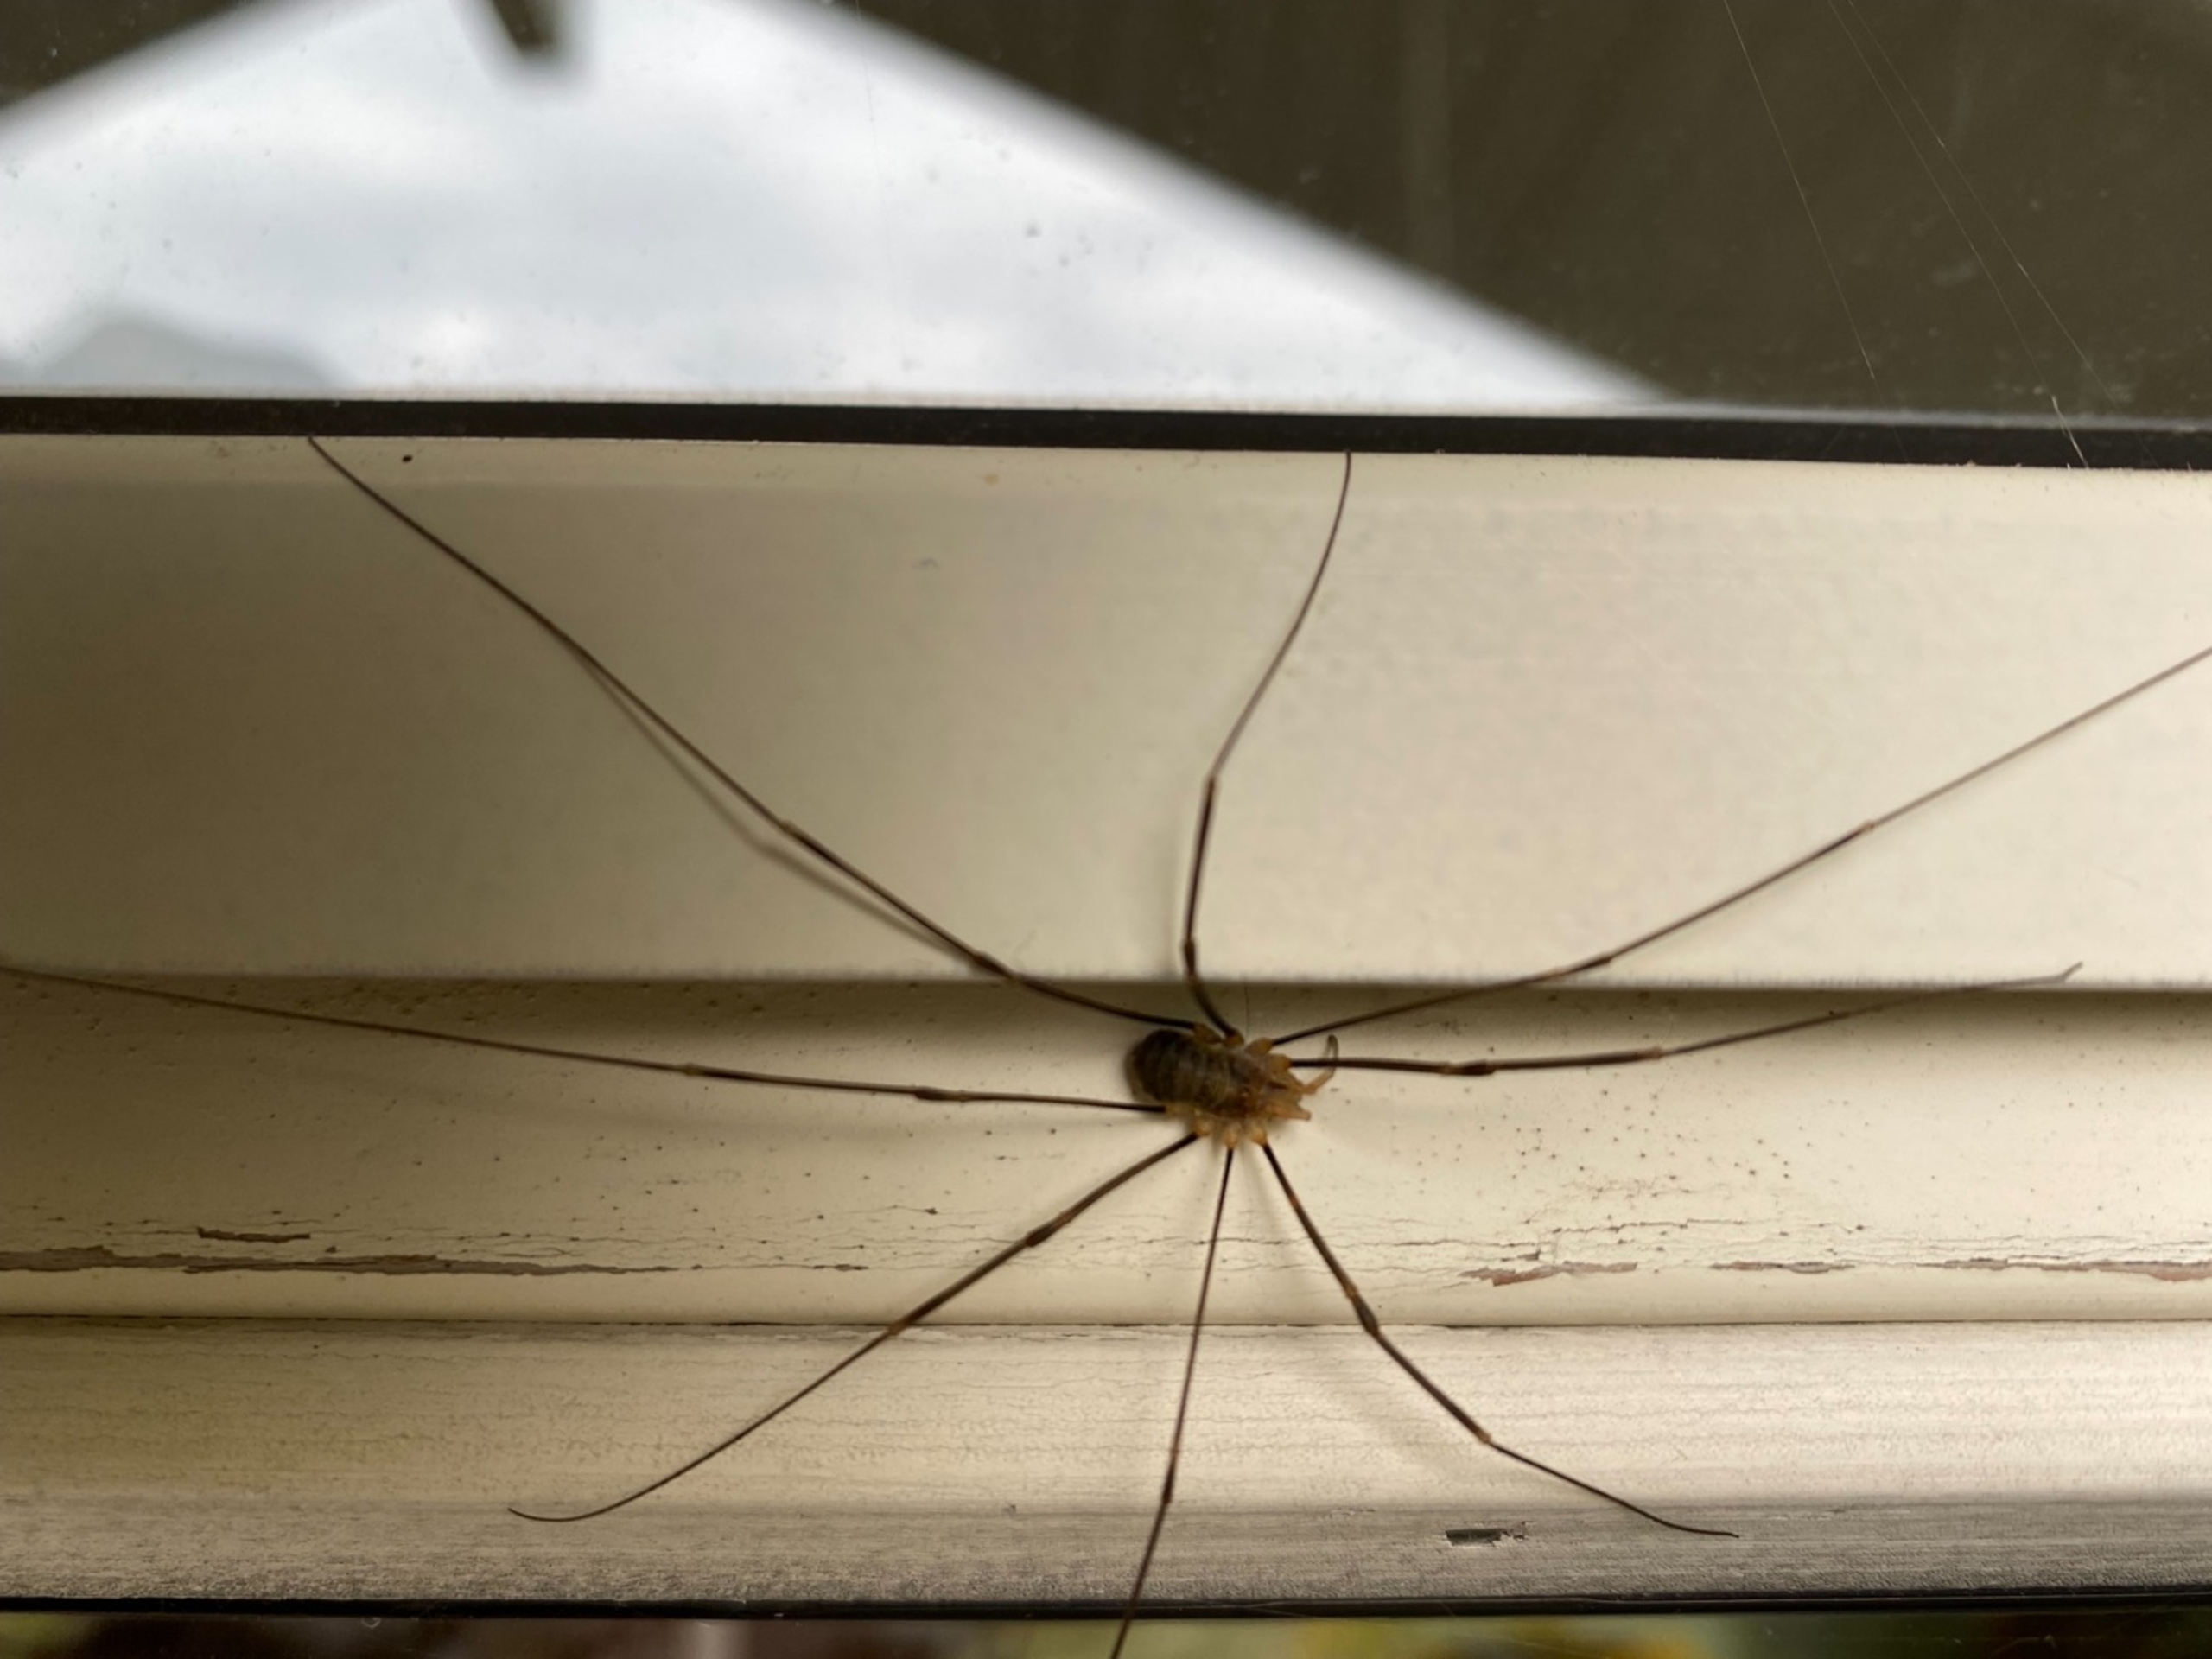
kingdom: Animalia
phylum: Arthropoda
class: Arachnida
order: Opiliones
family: Phalangiidae
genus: Opilio
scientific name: Opilio canestrinii
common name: Orange vægmejer
